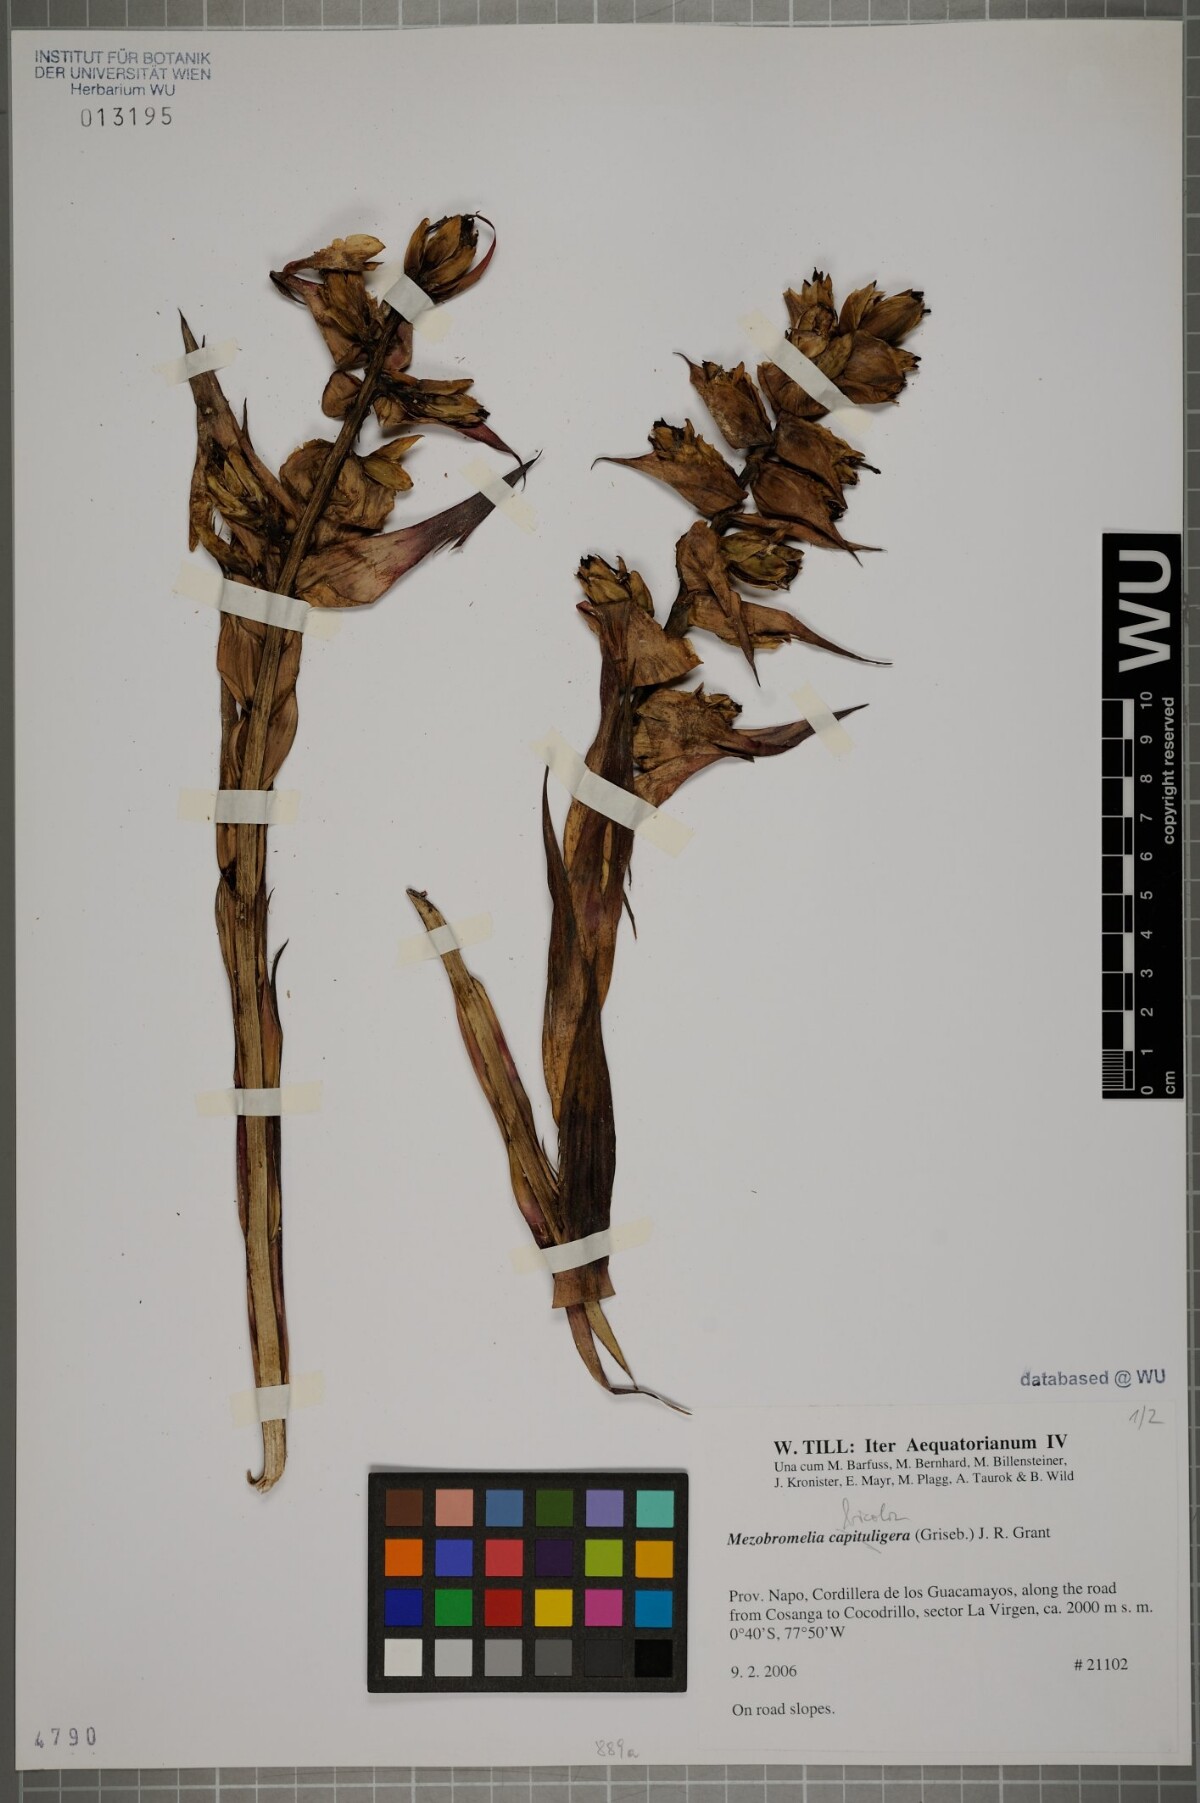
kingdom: Plantae
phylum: Tracheophyta
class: Liliopsida
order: Poales
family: Bromeliaceae
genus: Cipuropsis
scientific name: Cipuropsis bicolor
